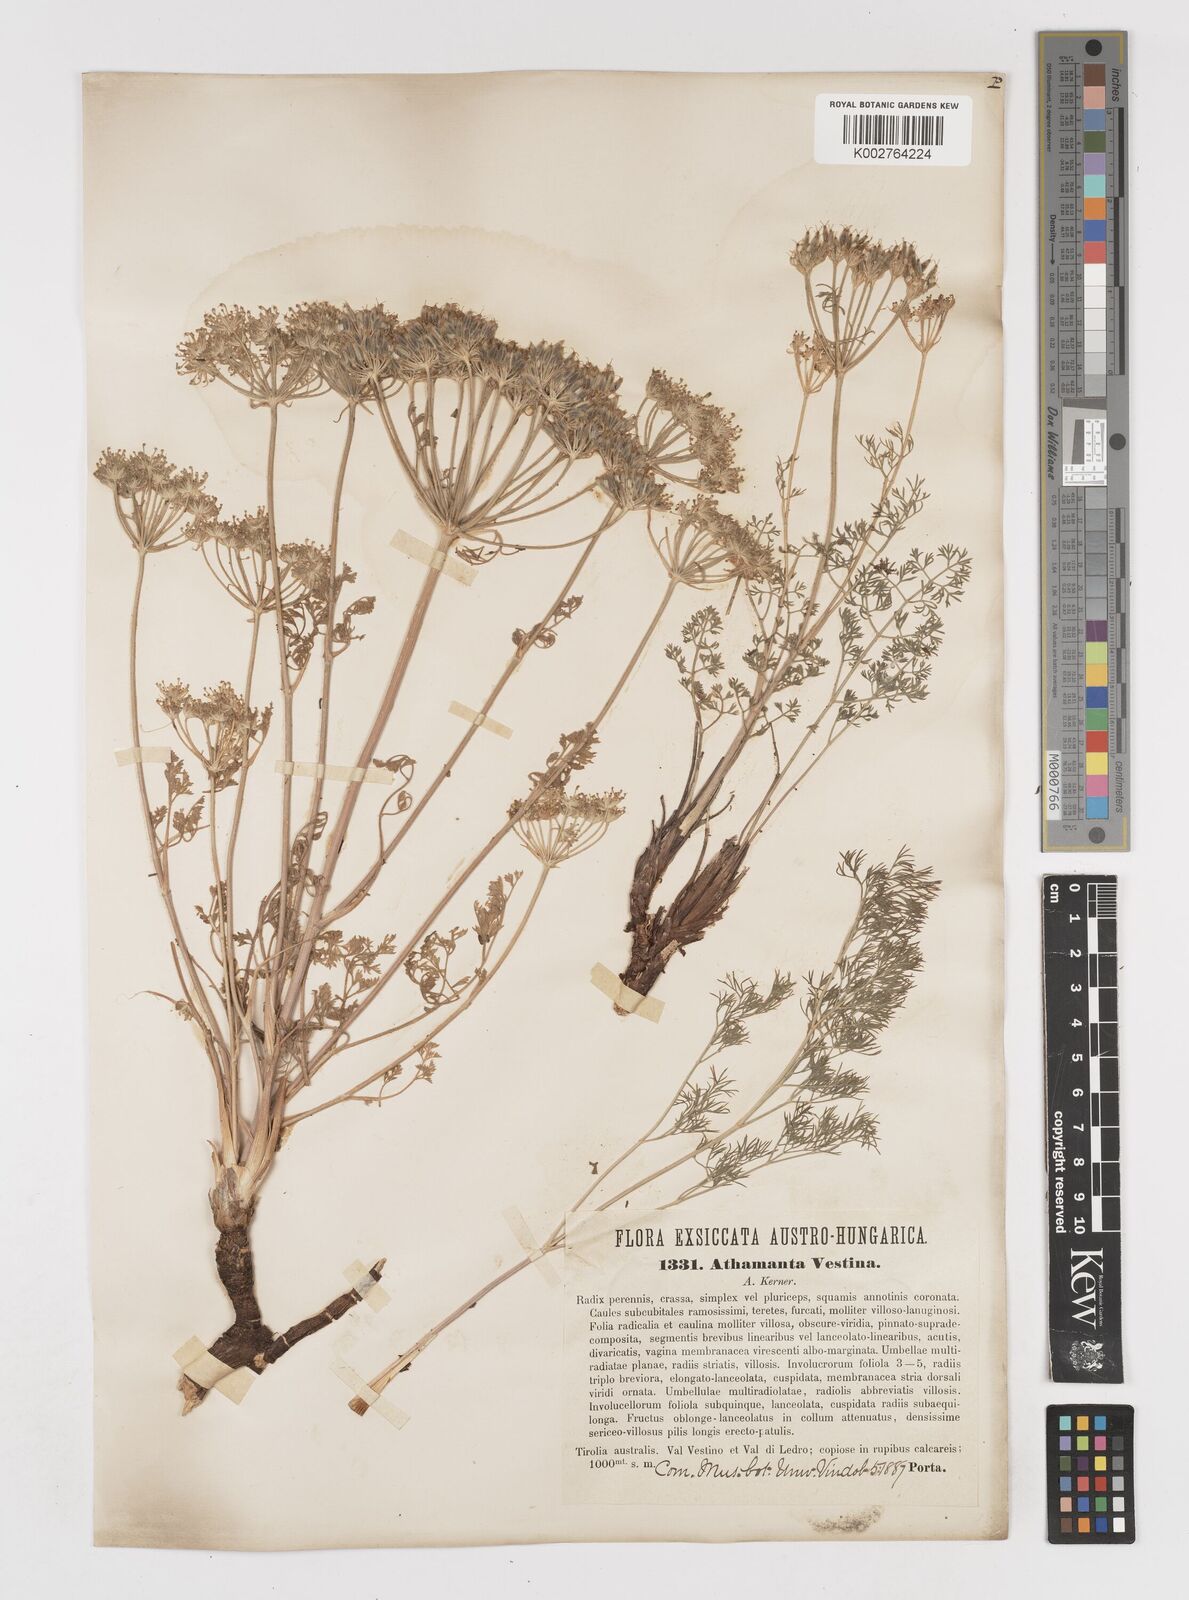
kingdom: Plantae
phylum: Tracheophyta
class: Magnoliopsida
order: Apiales
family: Apiaceae
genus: Athamanta
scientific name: Athamanta cretensis
